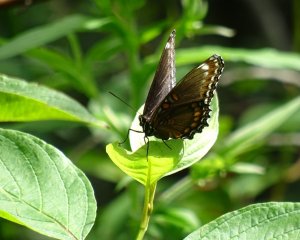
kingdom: Animalia
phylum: Arthropoda
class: Insecta
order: Lepidoptera
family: Nymphalidae
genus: Limenitis
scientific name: Limenitis astyanax
